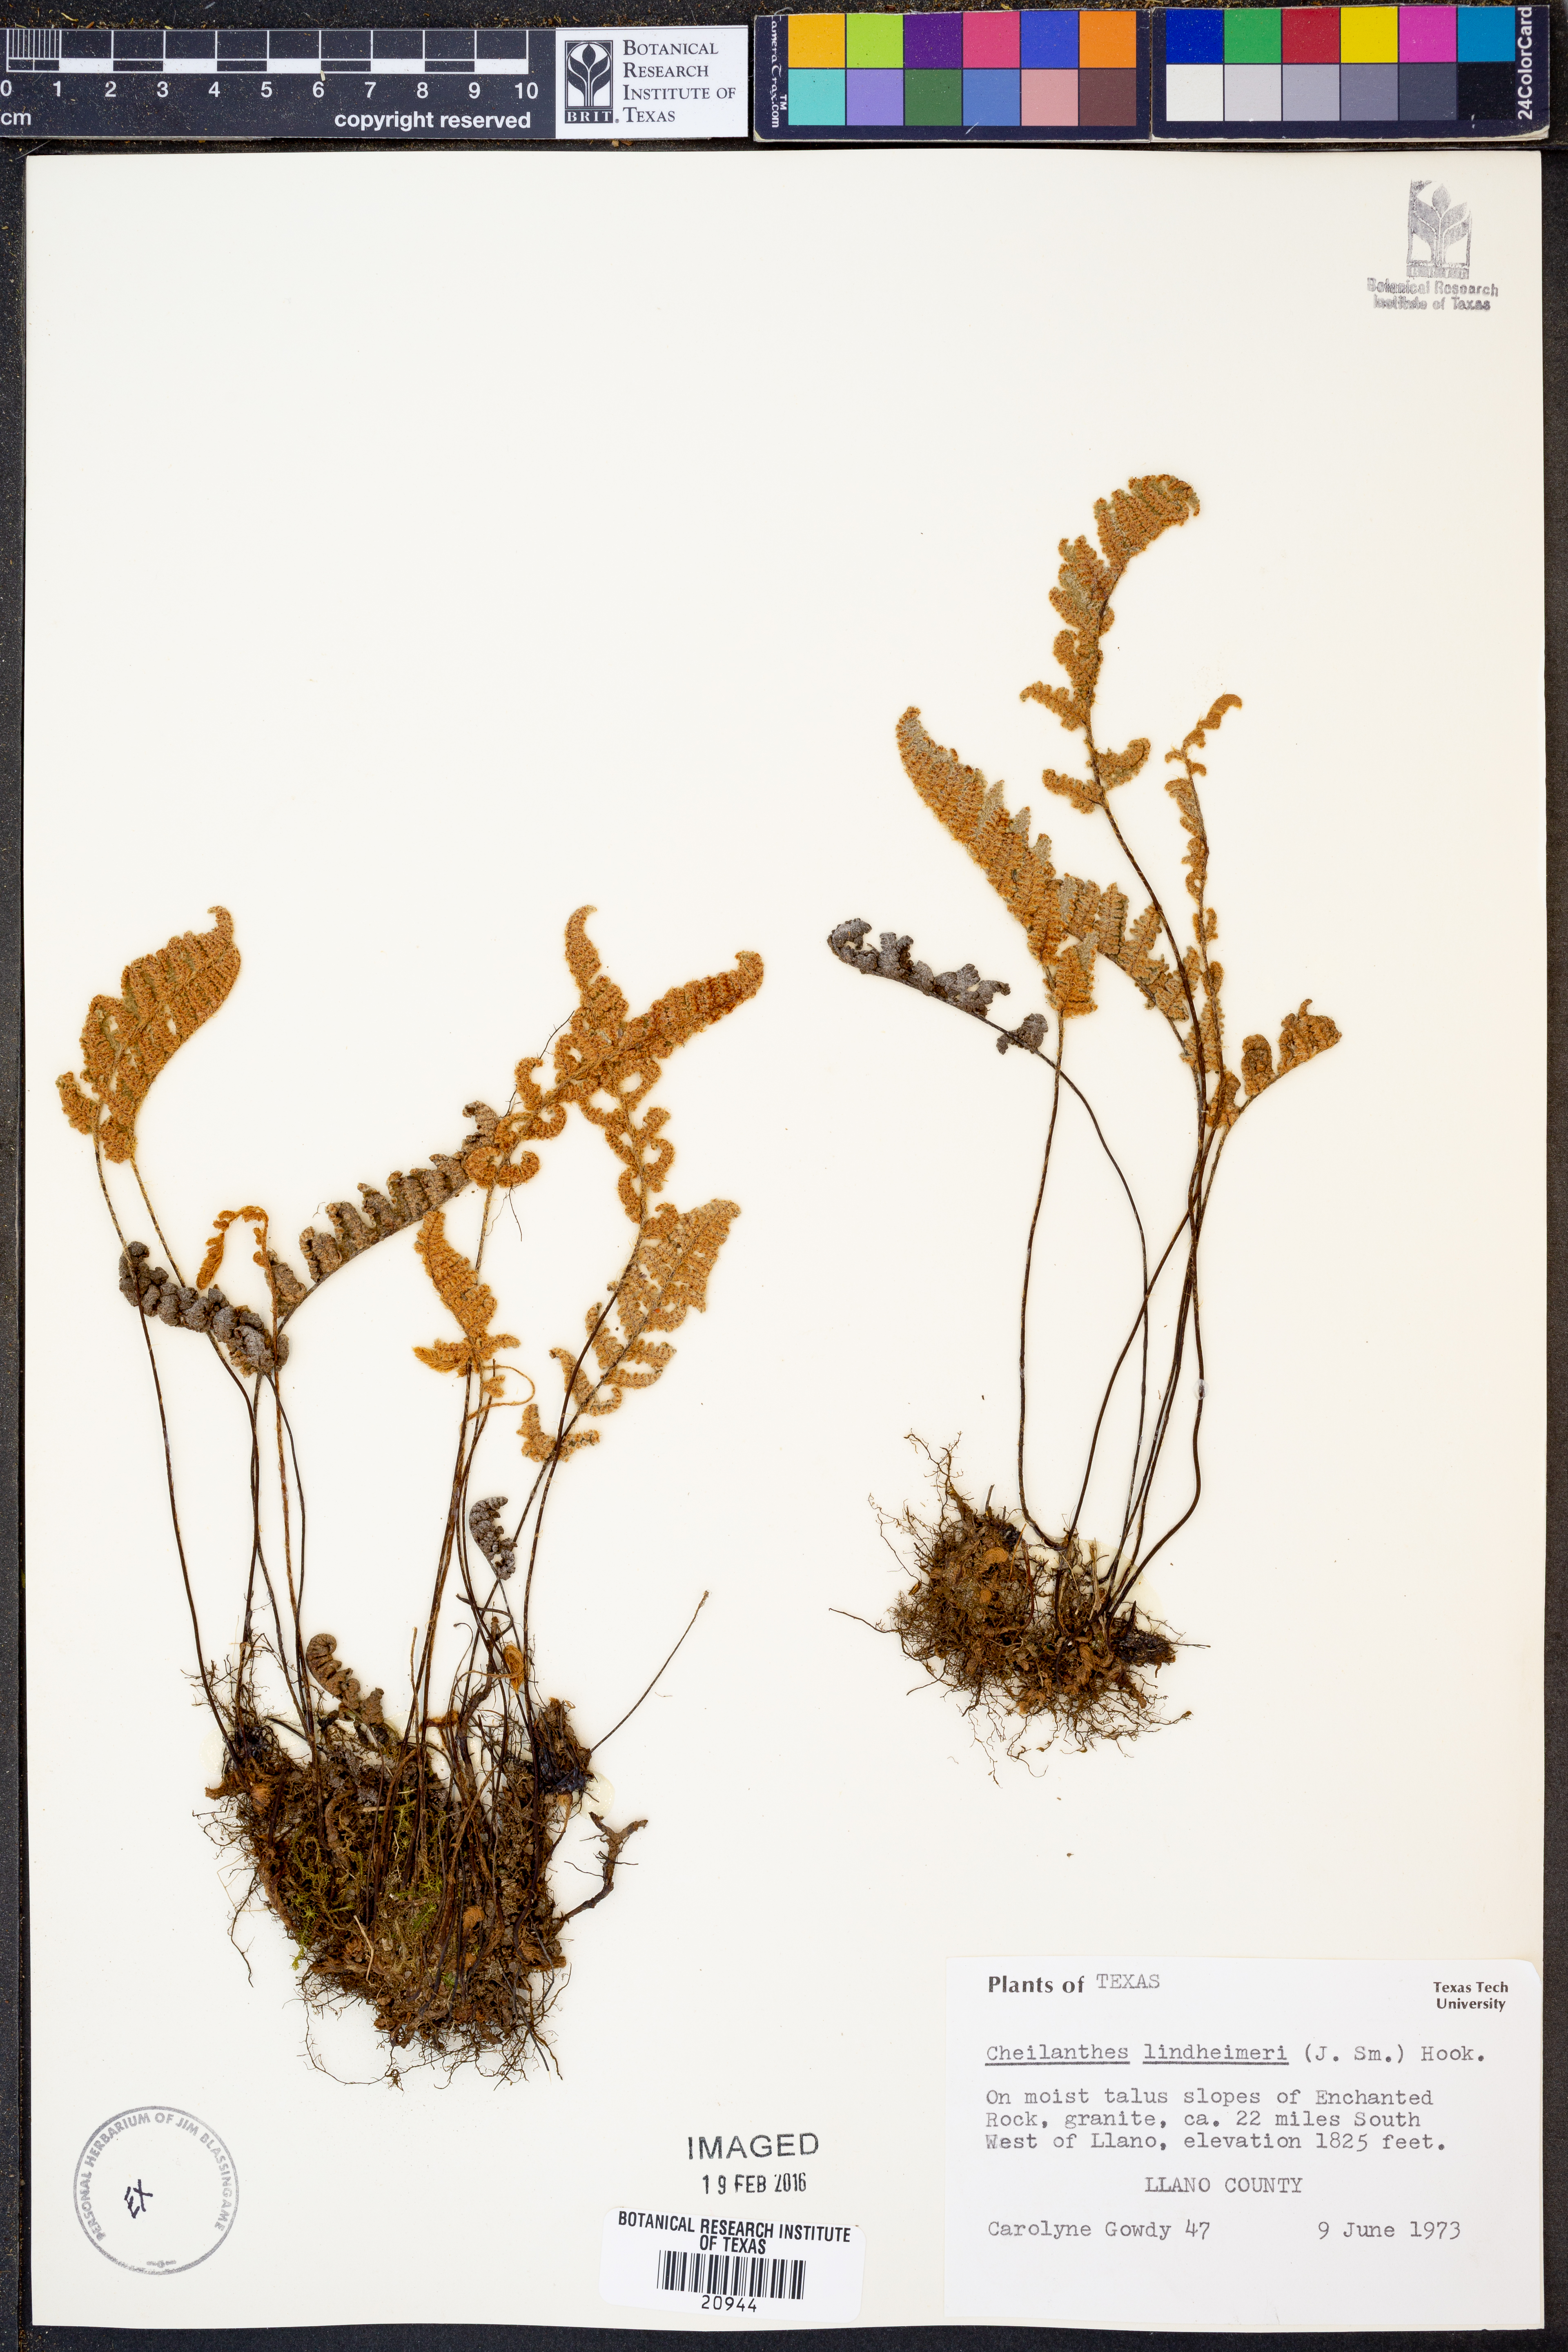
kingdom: Plantae
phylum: Tracheophyta
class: Polypodiopsida
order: Polypodiales
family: Pteridaceae
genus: Myriopteris
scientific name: Myriopteris lindheimeri
